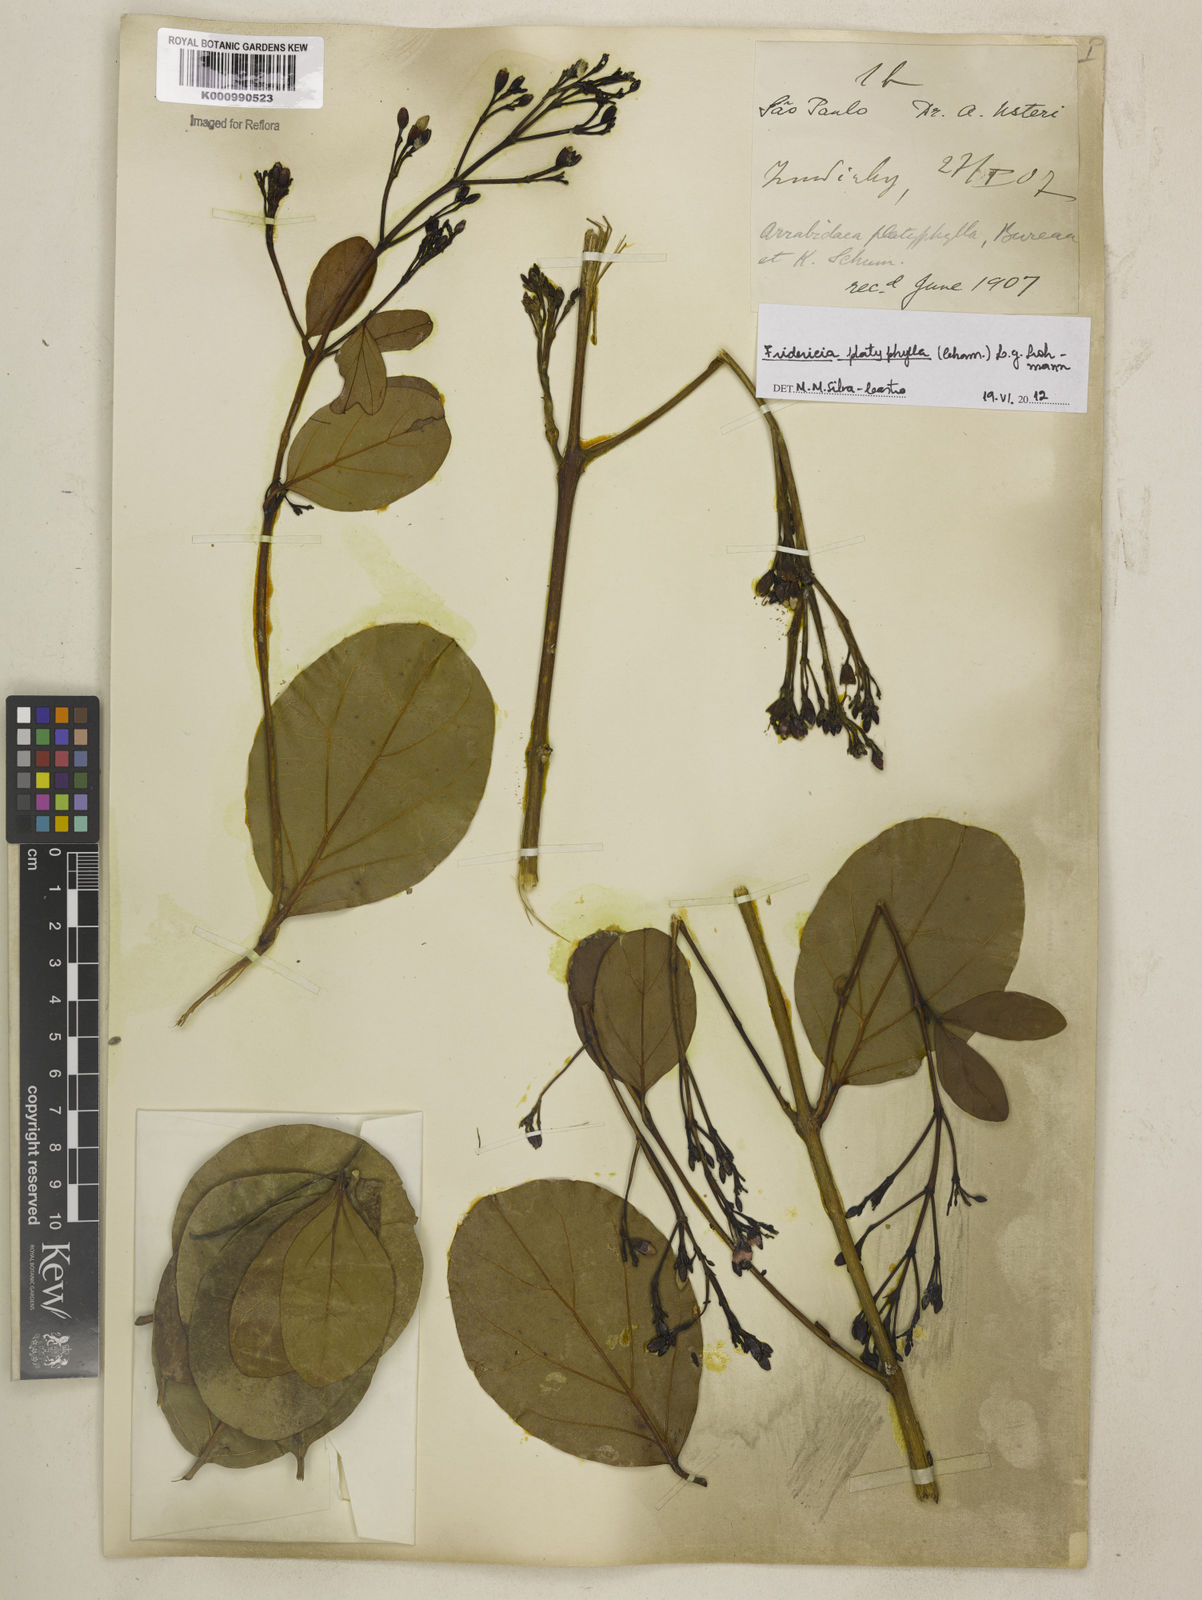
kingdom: Plantae
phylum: Tracheophyta
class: Magnoliopsida
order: Lamiales
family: Bignoniaceae
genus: Fridericia
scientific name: Fridericia platyphylla
